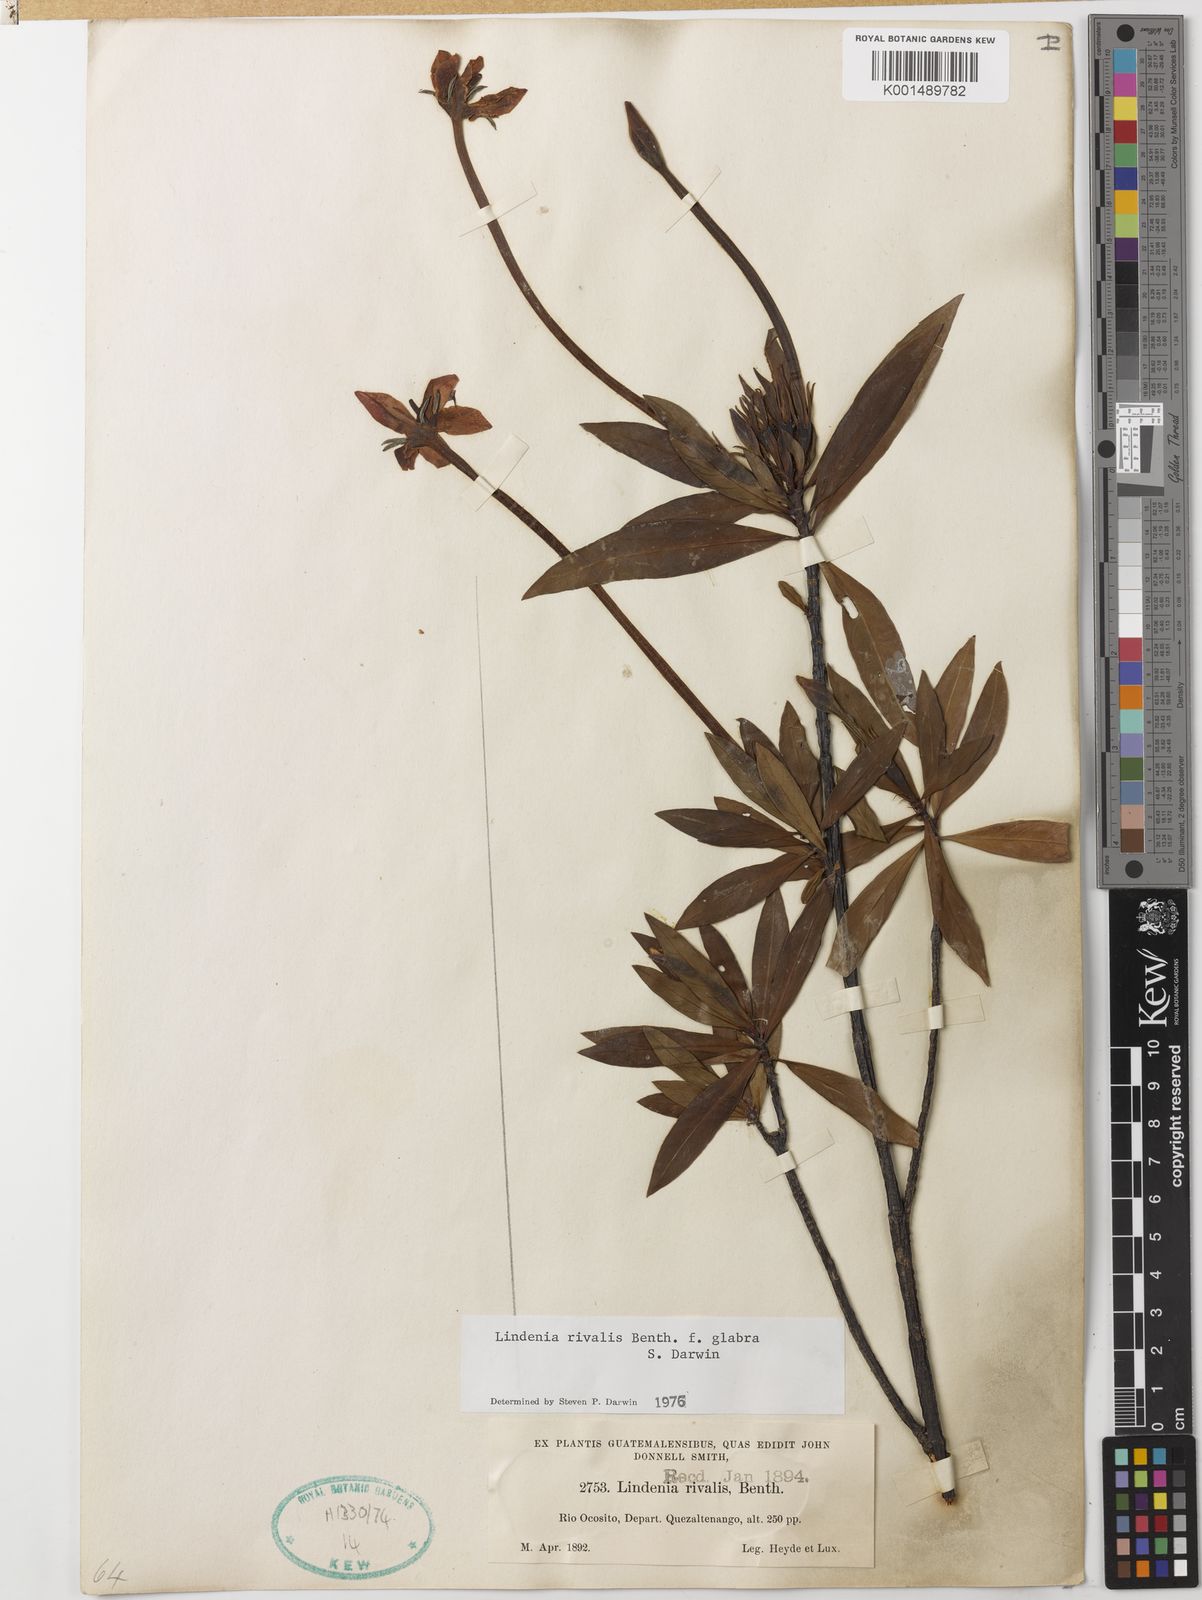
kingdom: Plantae
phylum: Tracheophyta
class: Magnoliopsida
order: Gentianales
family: Rubiaceae
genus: Augusta
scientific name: Augusta rivalis
